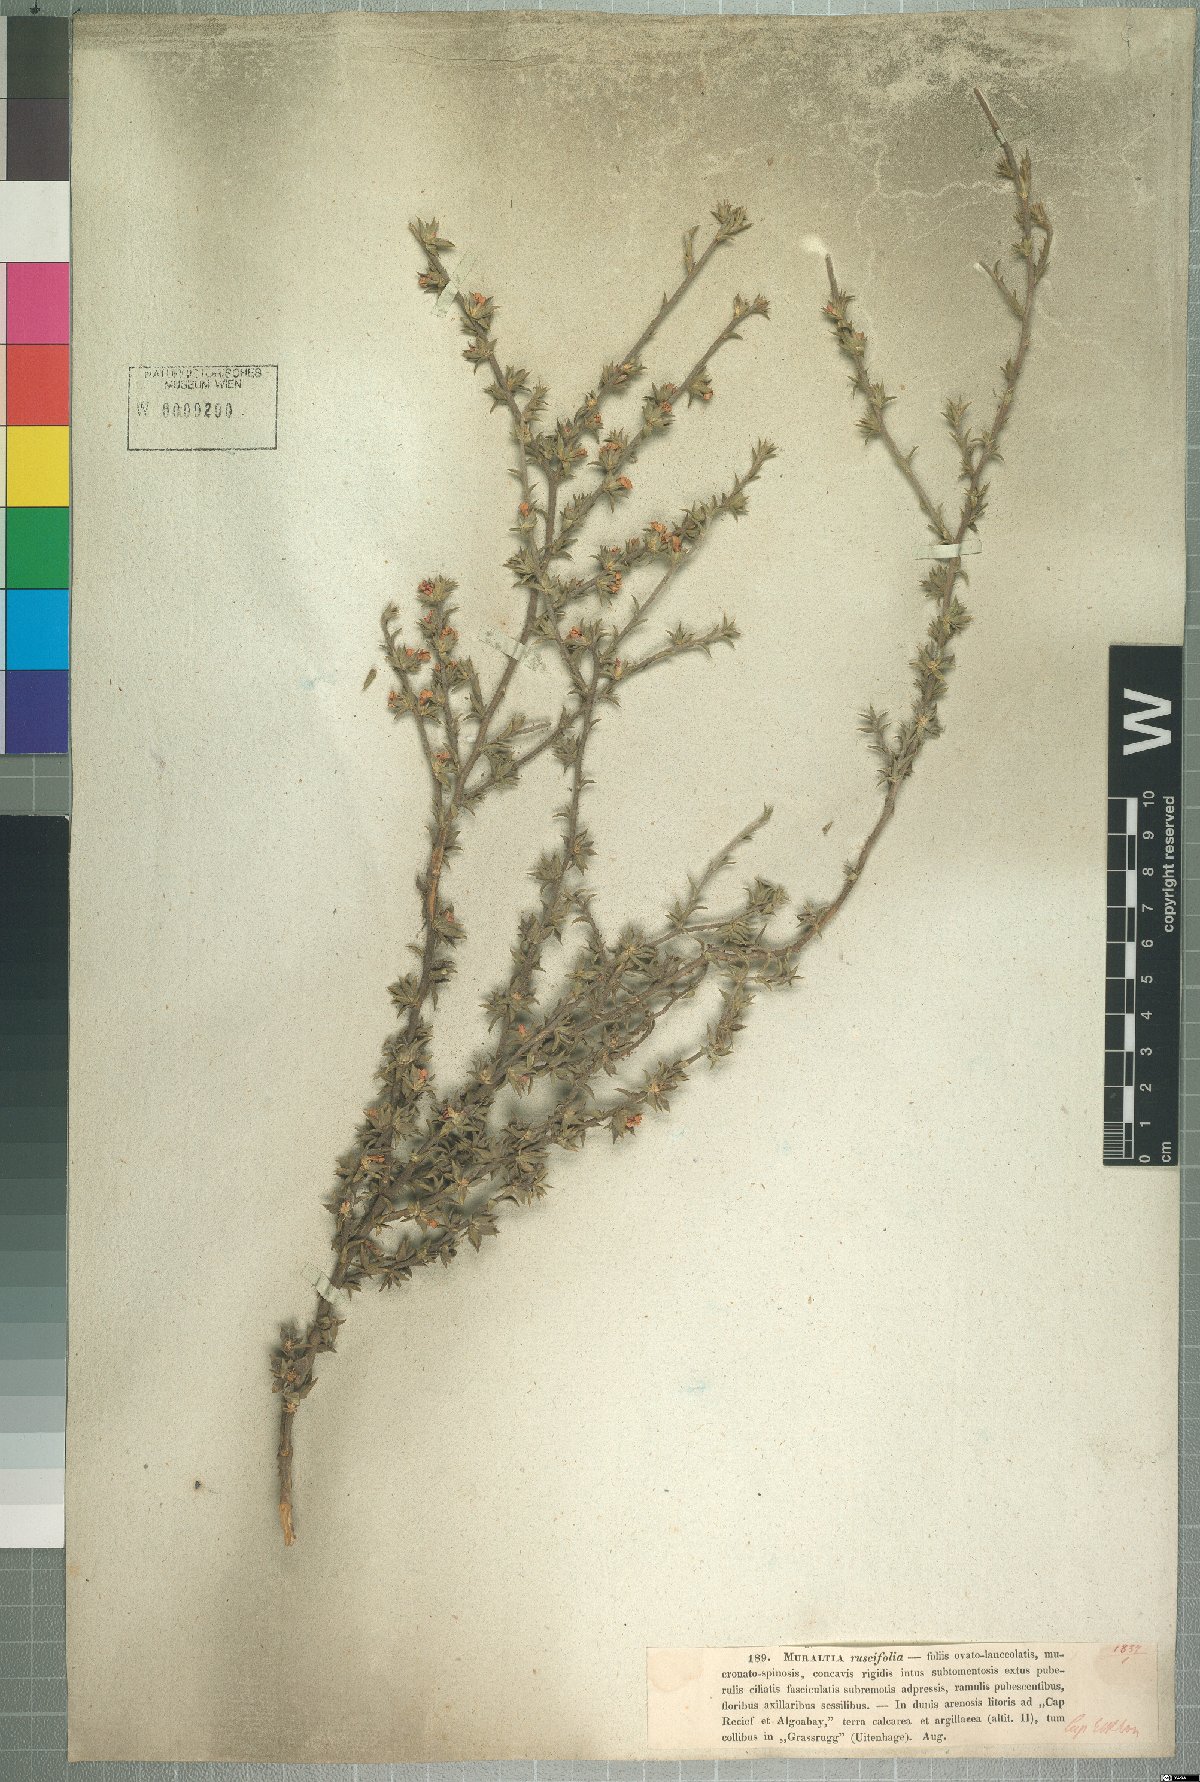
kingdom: Plantae
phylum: Tracheophyta
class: Magnoliopsida
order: Fabales
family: Polygalaceae
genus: Muraltia
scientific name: Muraltia squarrosa
